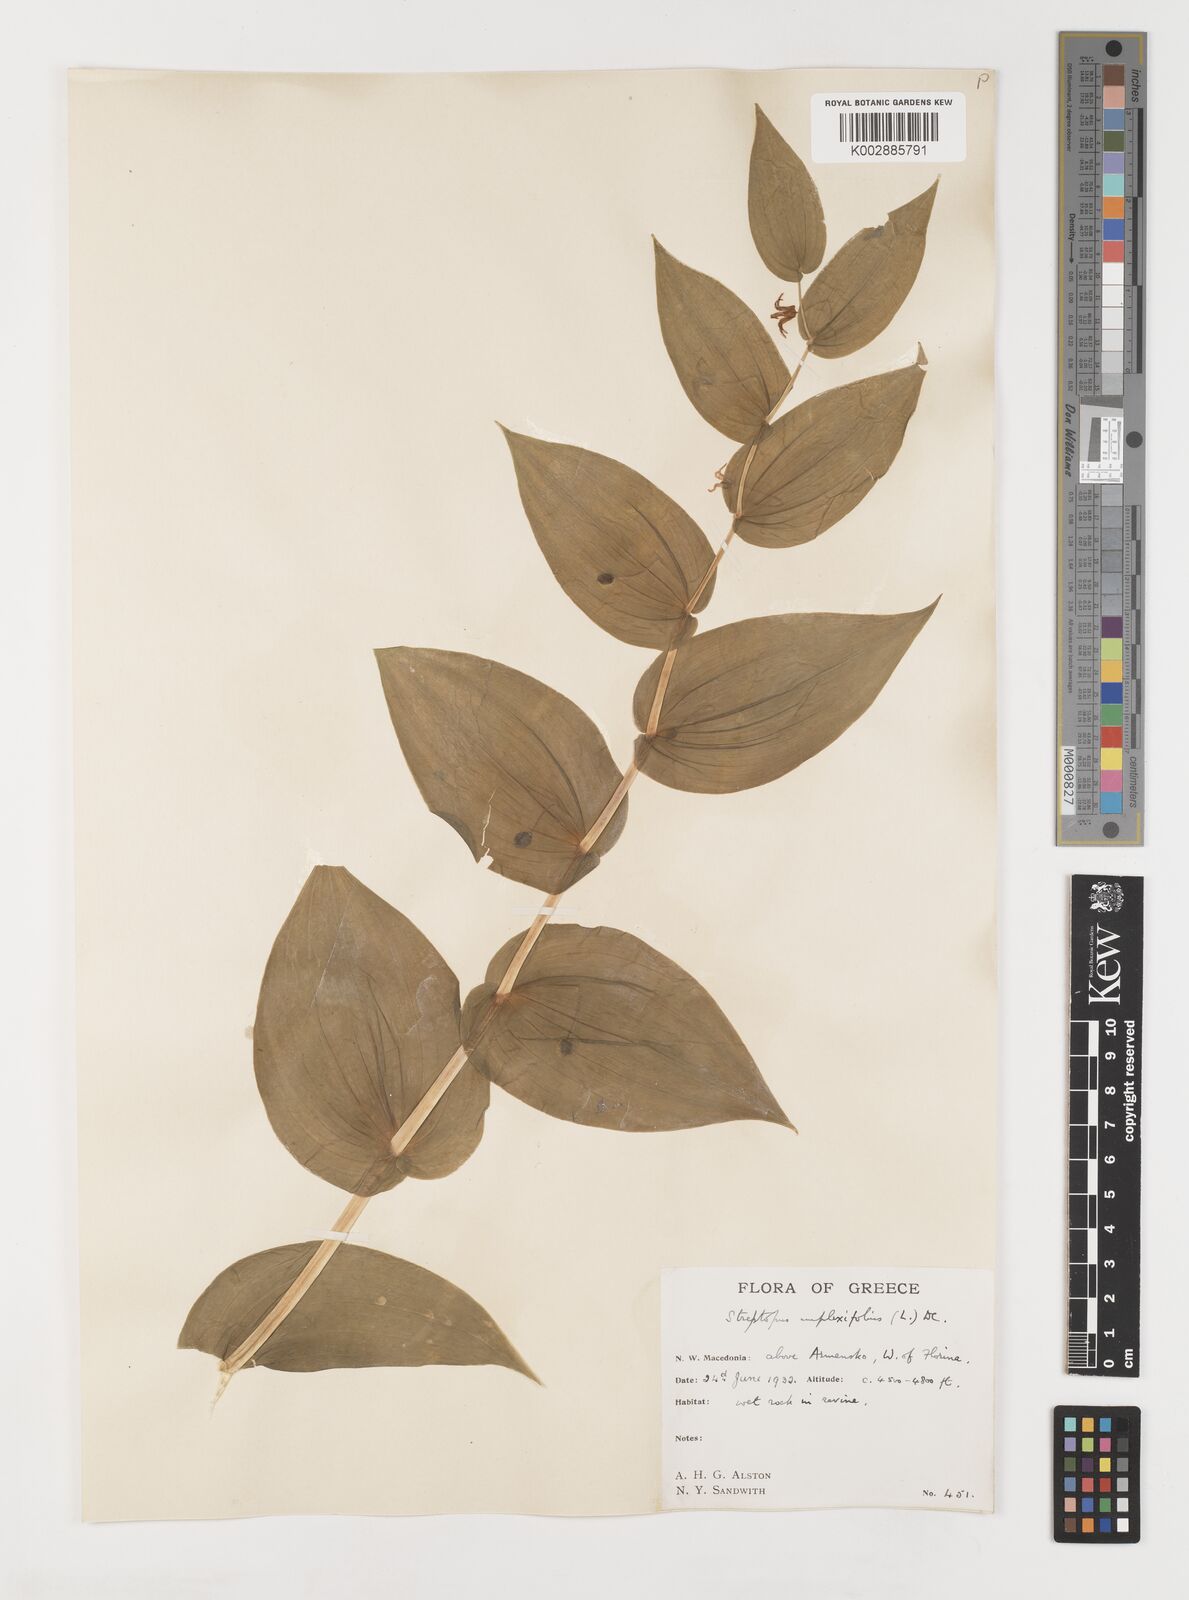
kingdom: Plantae
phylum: Tracheophyta
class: Liliopsida
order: Liliales
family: Liliaceae
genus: Streptopus
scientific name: Streptopus amplexifolius
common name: Clasp twisted stalk
